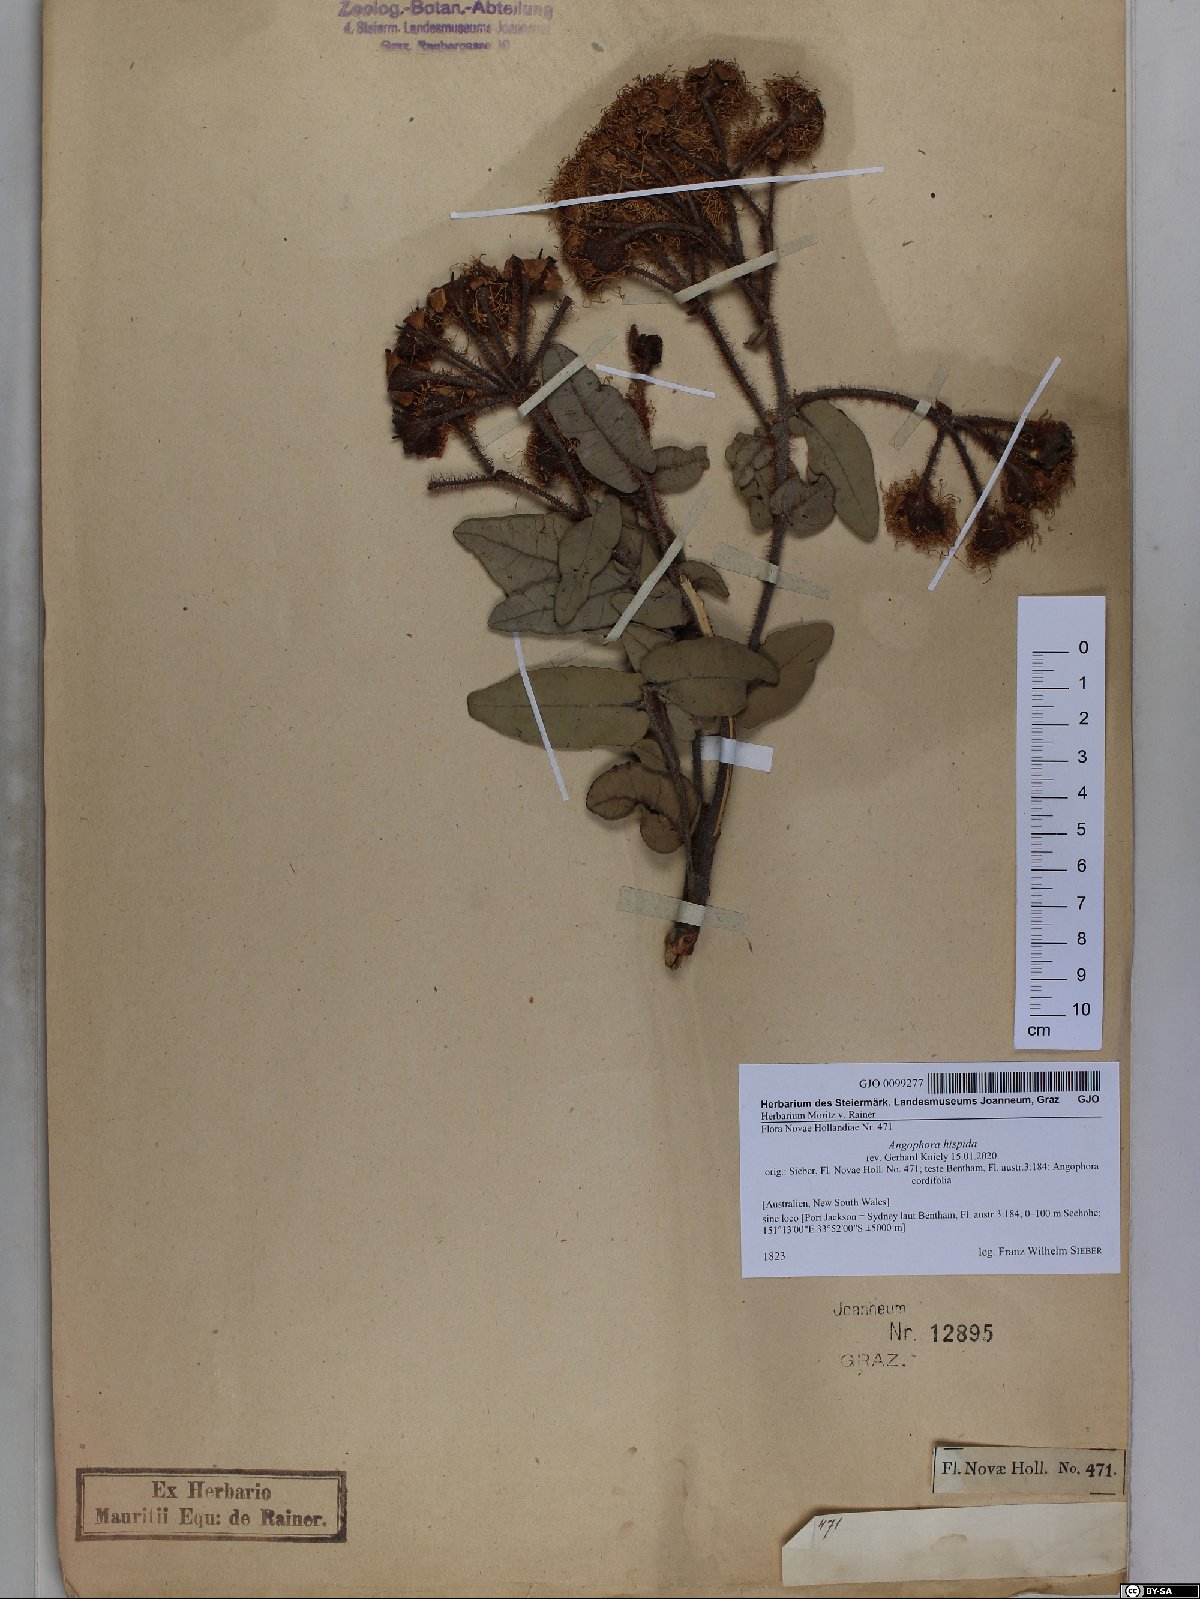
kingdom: Plantae
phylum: Tracheophyta
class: Magnoliopsida
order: Myrtales
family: Myrtaceae
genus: Angophora
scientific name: Angophora hispida
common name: Dwarf-apple
